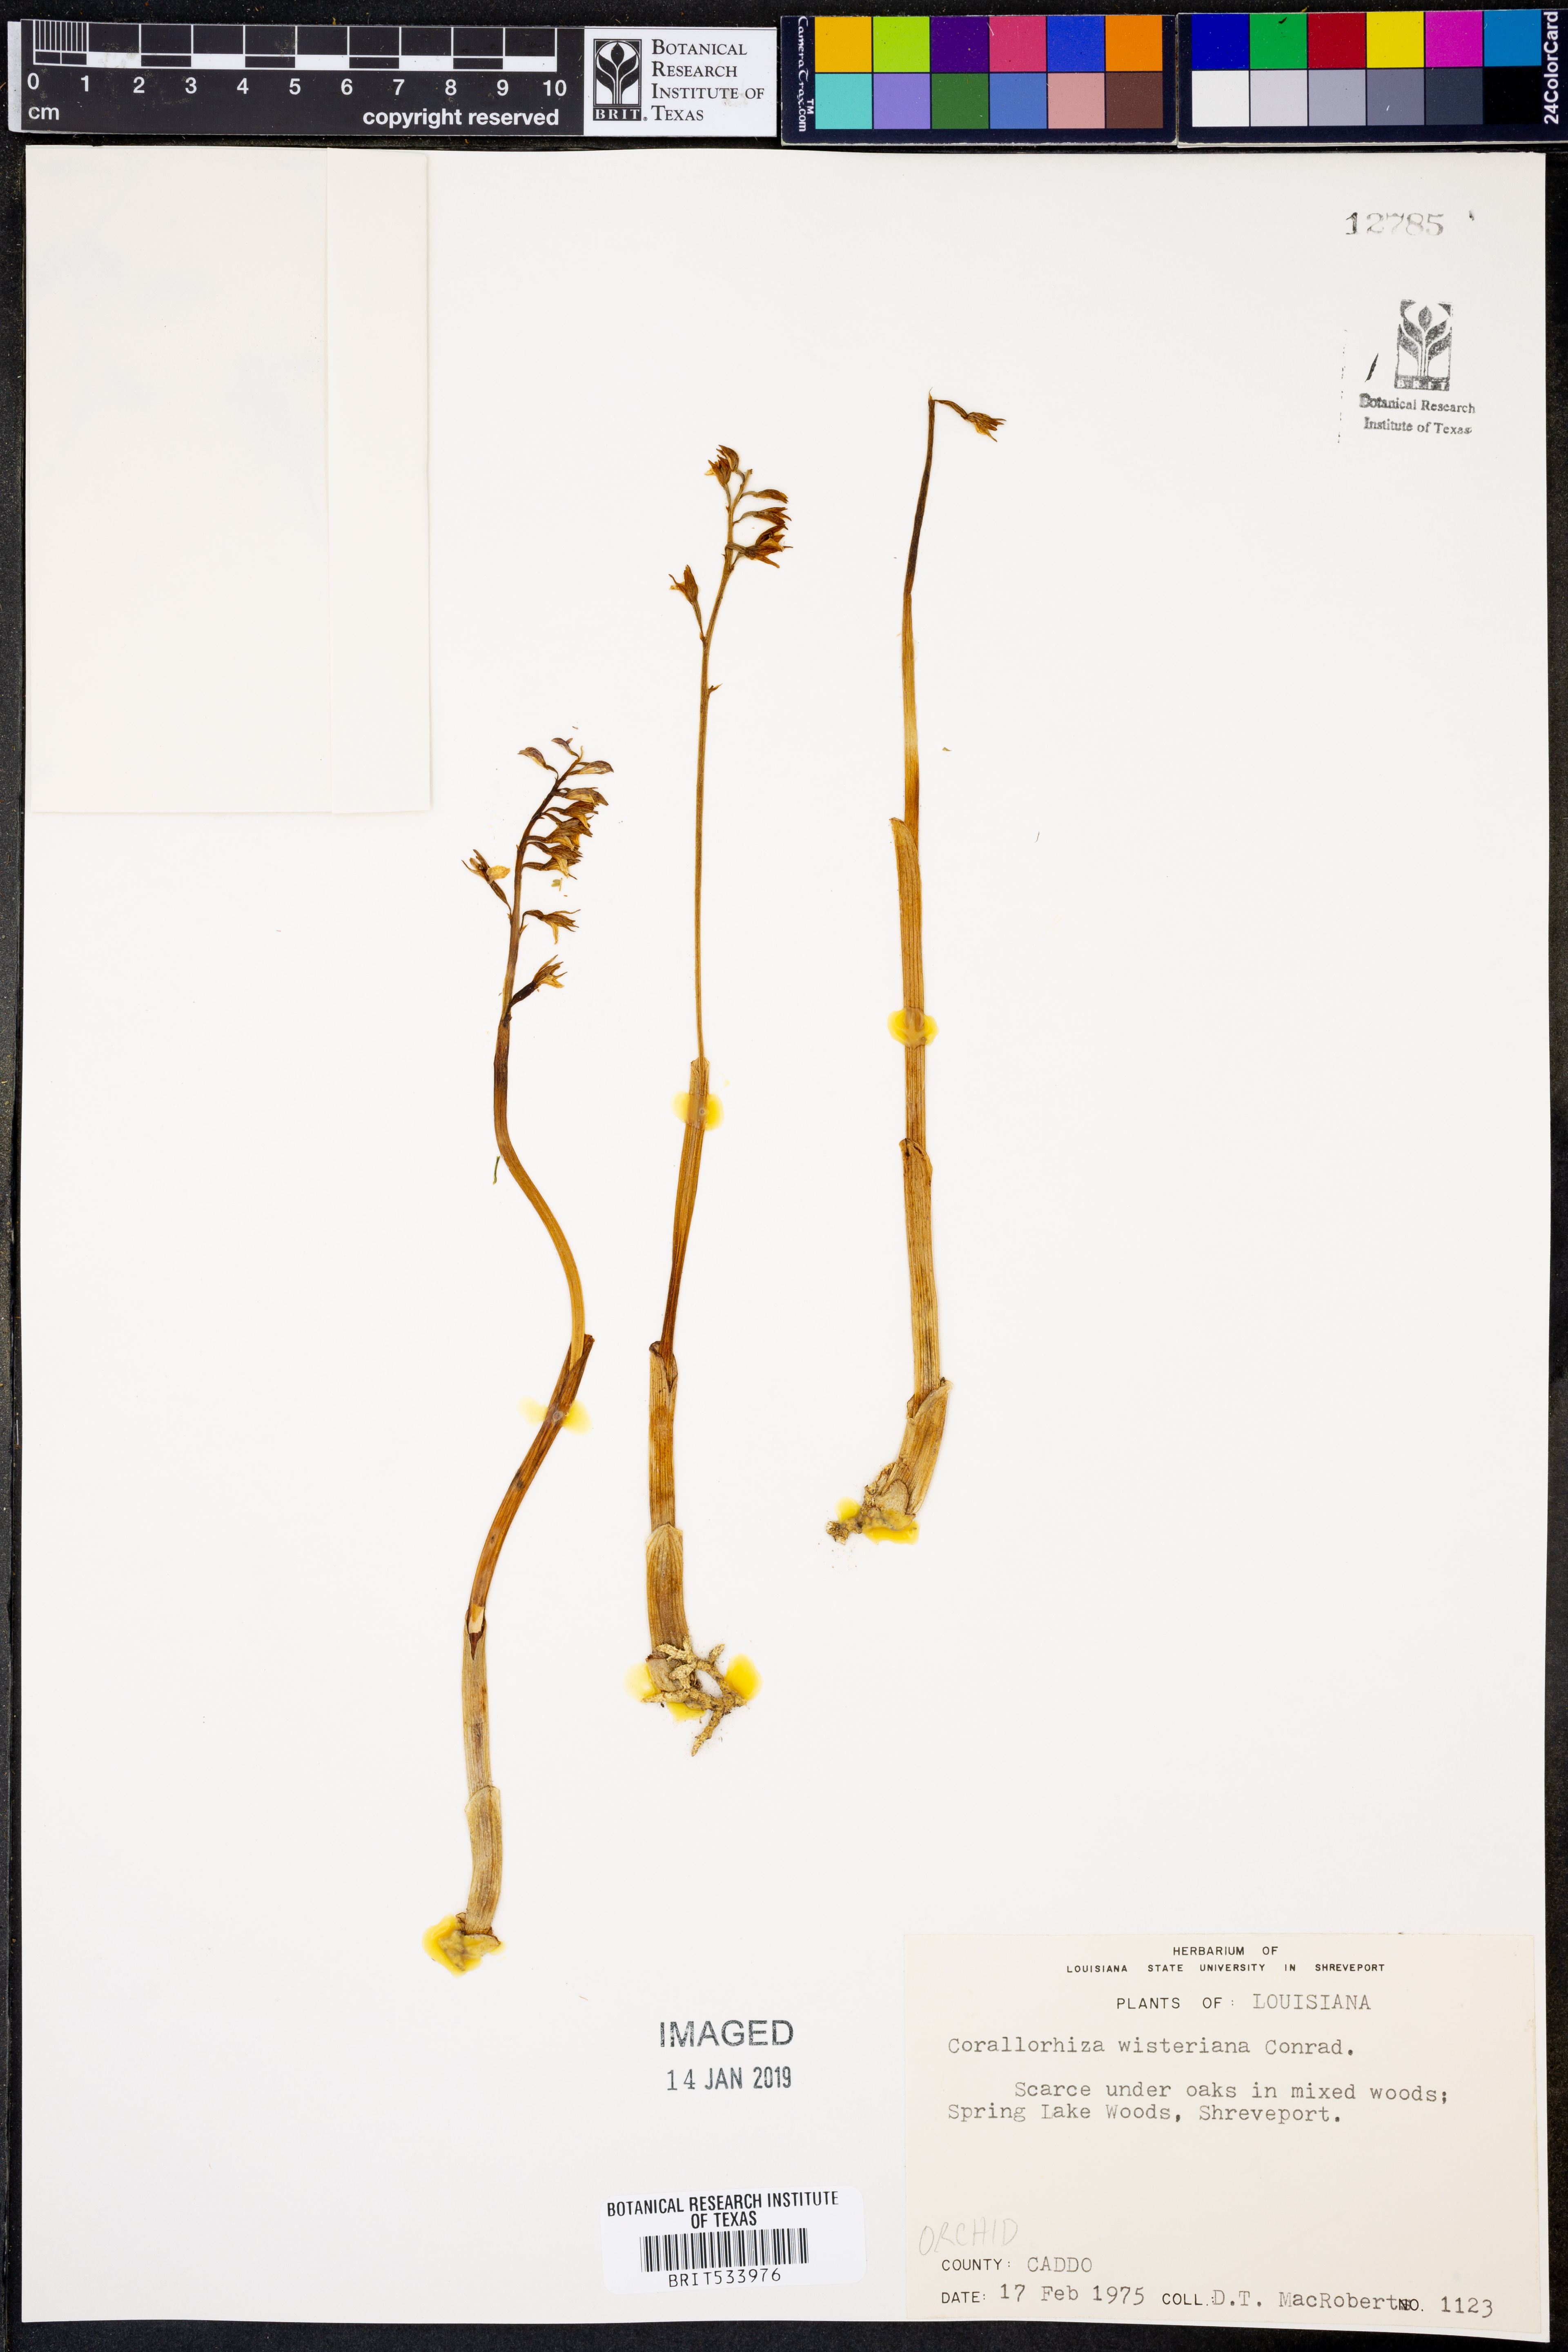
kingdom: Plantae
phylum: Tracheophyta
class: Liliopsida
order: Asparagales
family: Orchidaceae
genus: Corallorhiza
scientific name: Corallorhiza wisteriana
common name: Spring coralroot
